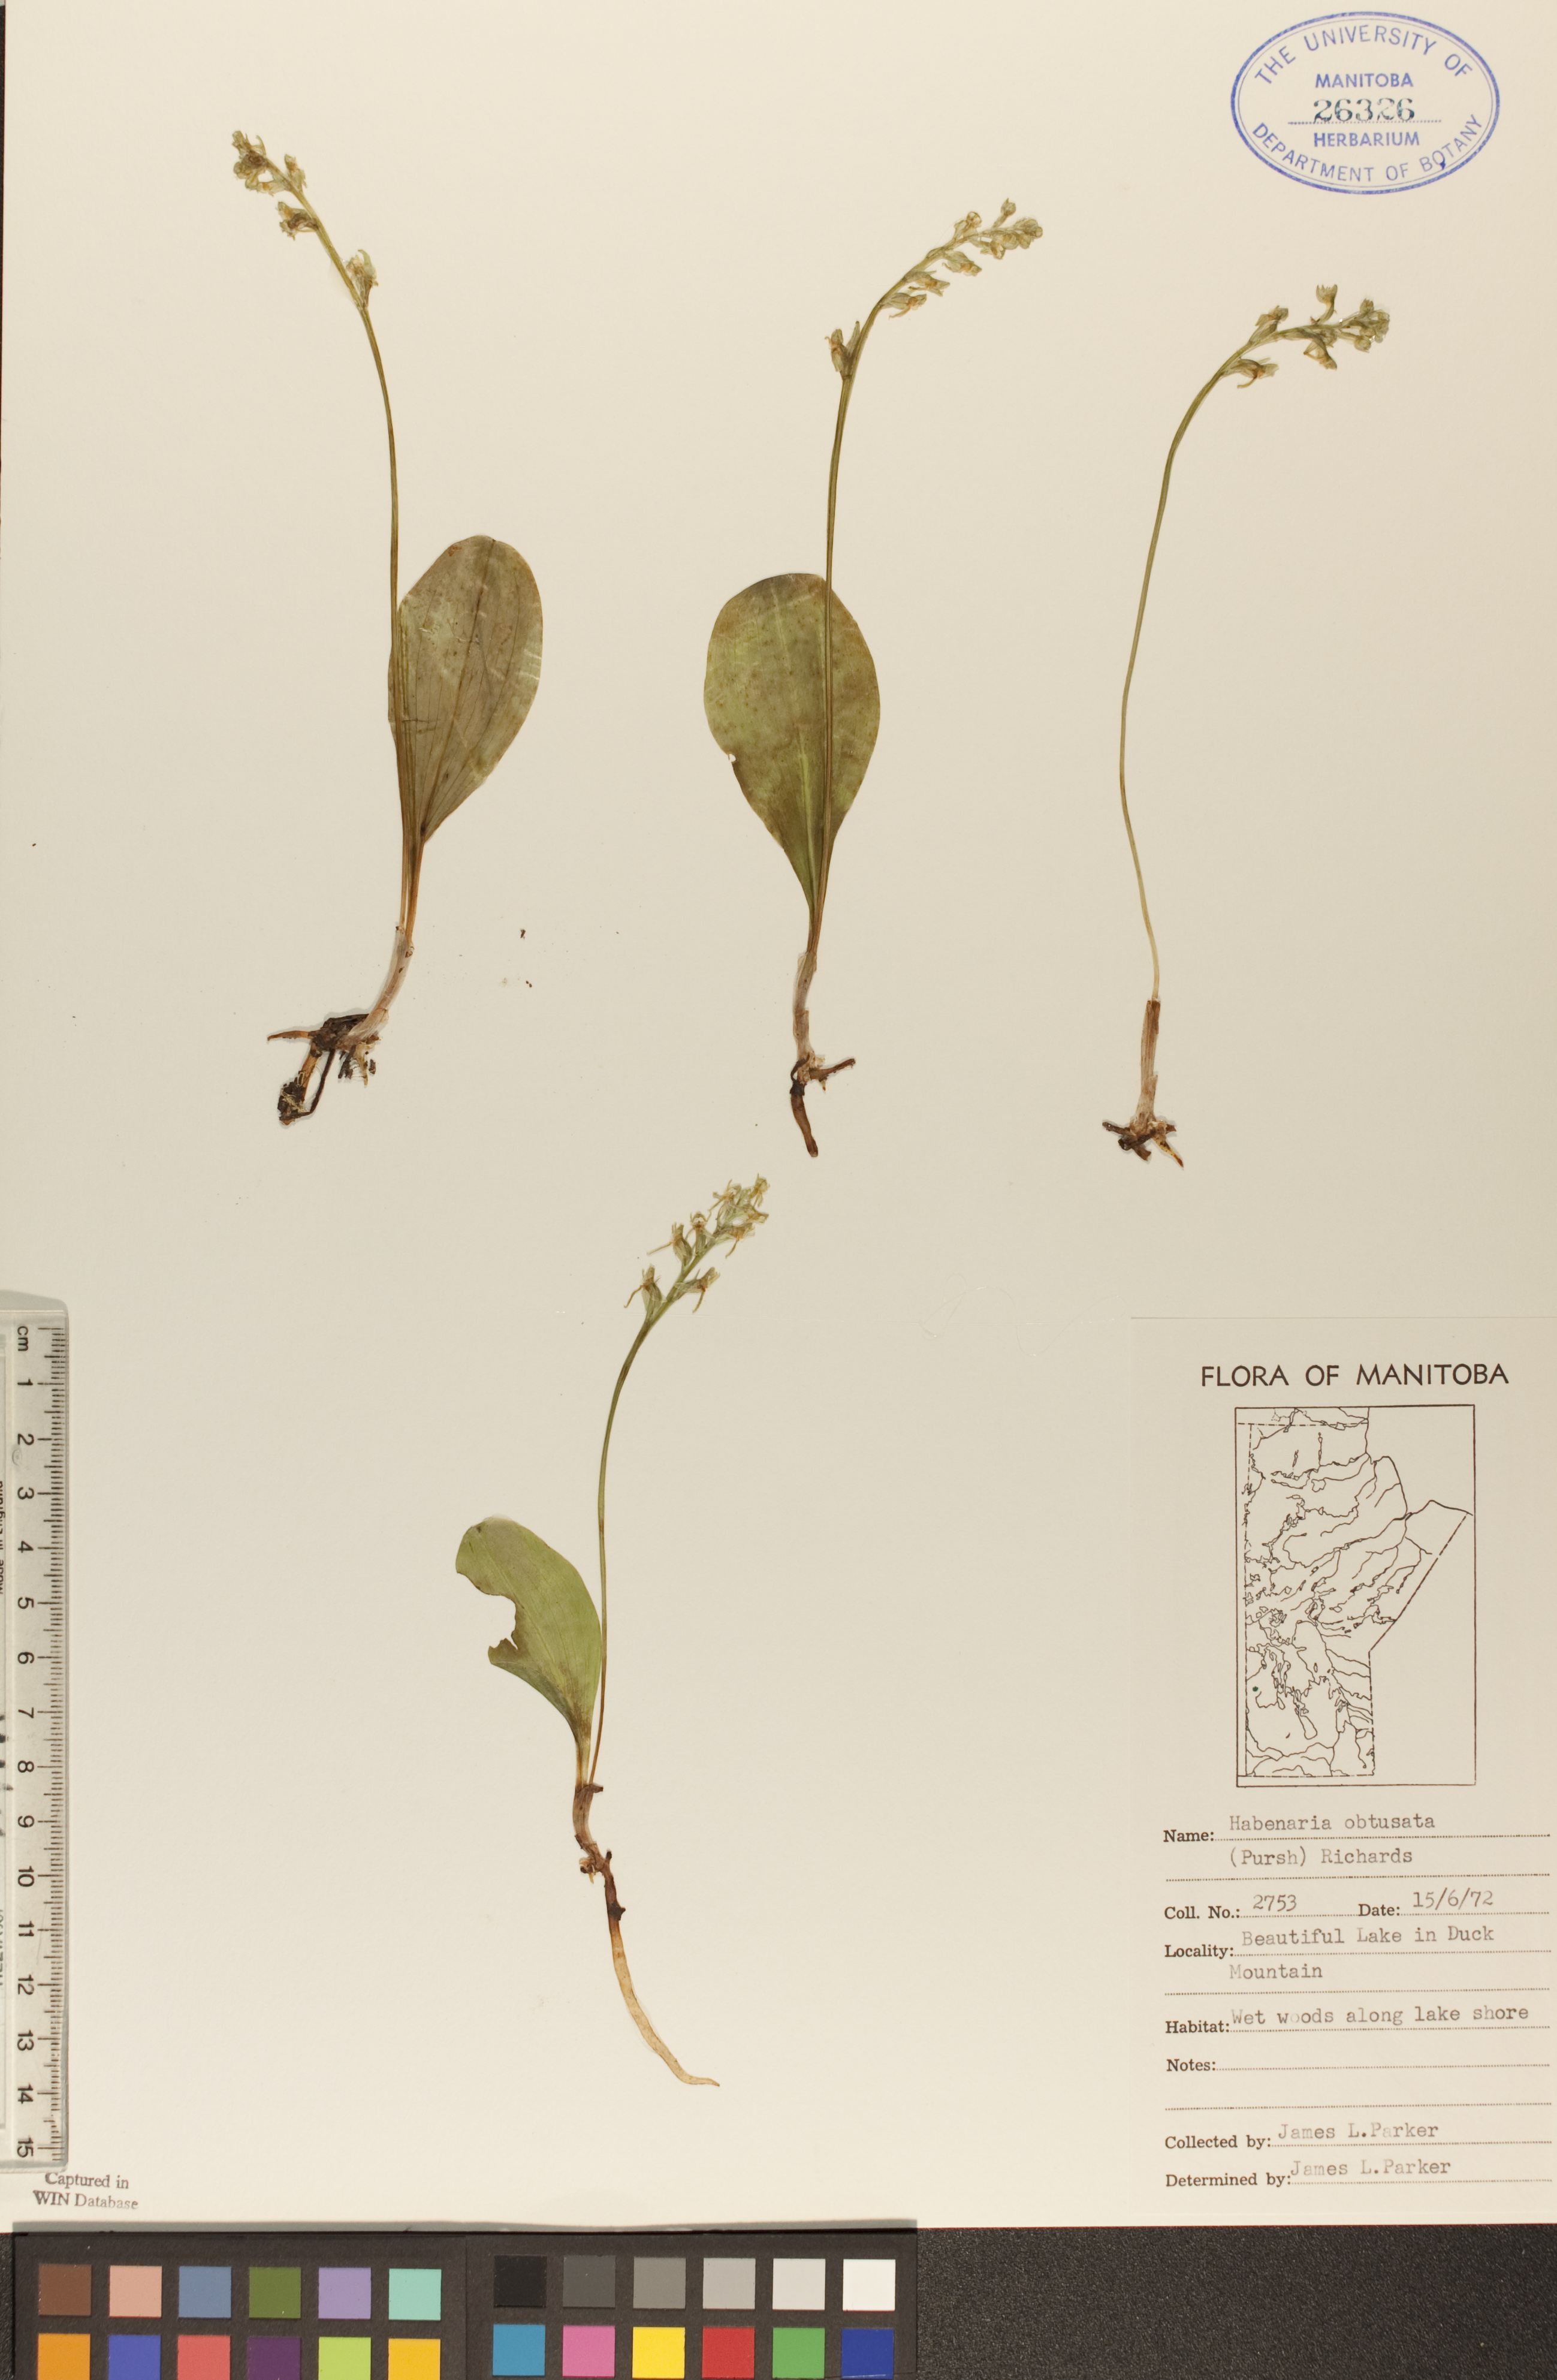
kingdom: Plantae
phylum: Tracheophyta
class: Liliopsida
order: Asparagales
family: Orchidaceae
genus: Platanthera
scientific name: Platanthera obtusata
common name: Blunt bog orchid
